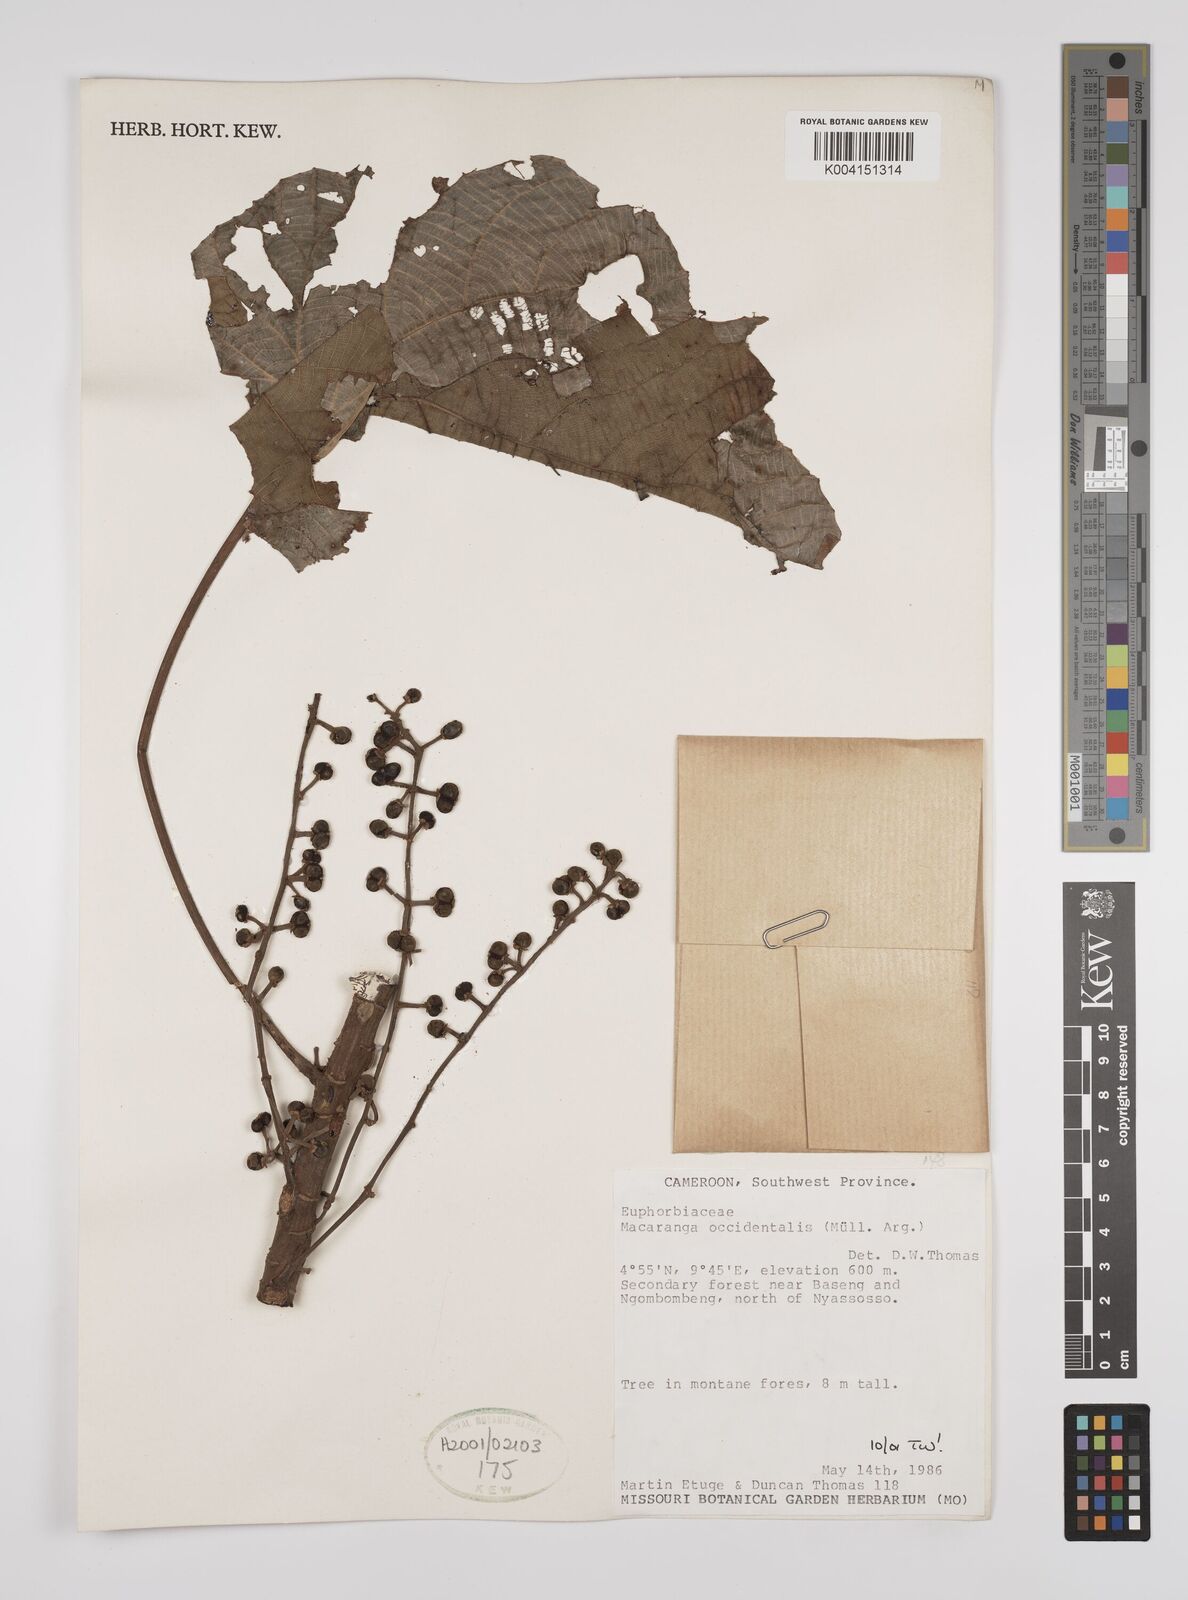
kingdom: Plantae
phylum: Tracheophyta
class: Magnoliopsida
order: Malpighiales
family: Euphorbiaceae
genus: Macaranga
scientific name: Macaranga occidentalis
